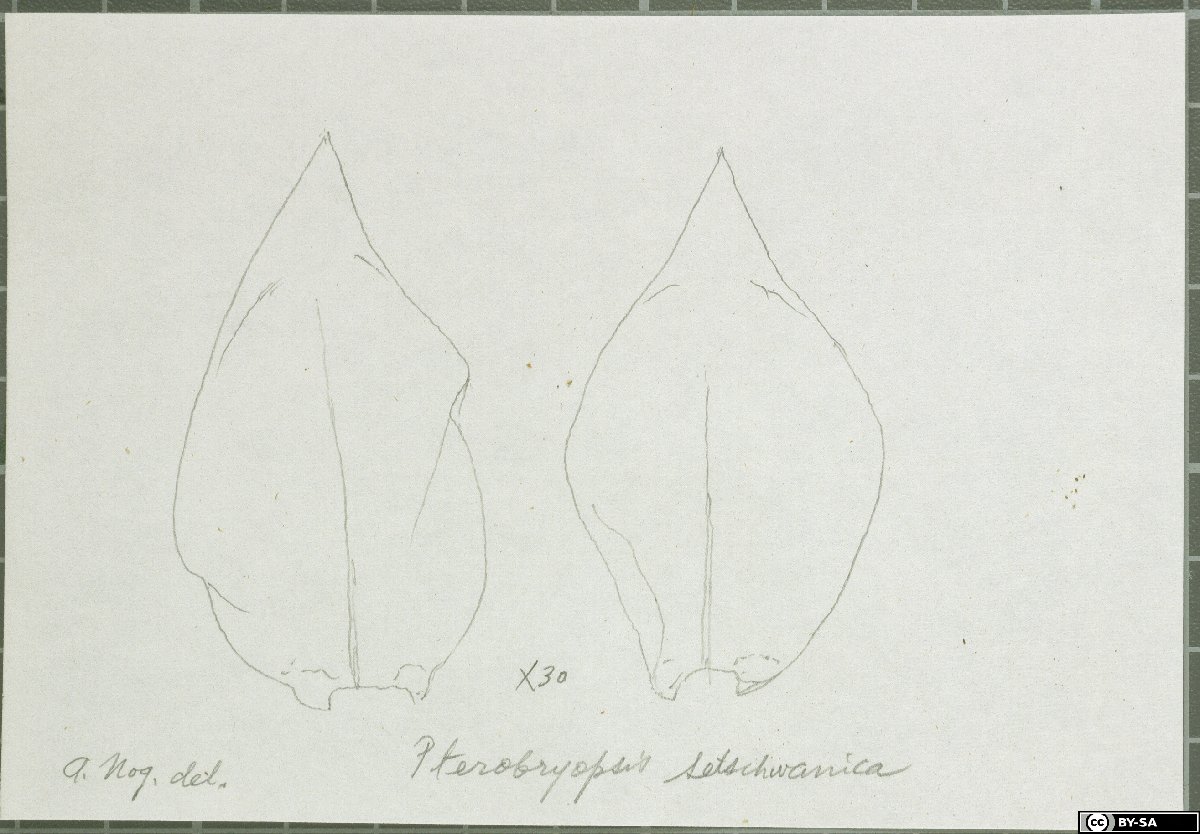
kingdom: Plantae
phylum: Bryophyta
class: Bryopsida
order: Hypnales
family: Pterobryaceae
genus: Pterobryopsis
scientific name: Pterobryopsis setschwanica
